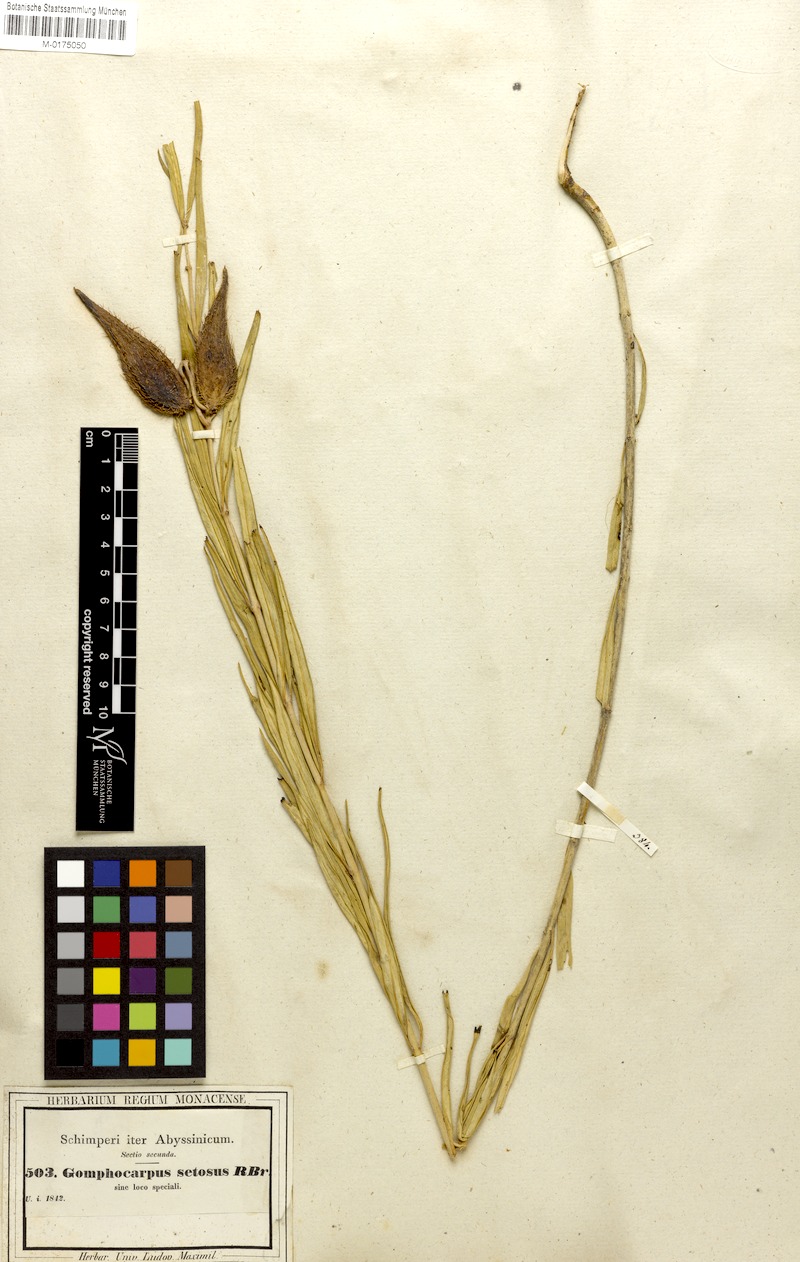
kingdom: Plantae
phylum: Tracheophyta
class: Magnoliopsida
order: Gentianales
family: Apocynaceae
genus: Gomphocarpus
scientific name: Gomphocarpus fruticosus
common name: Milkweed
